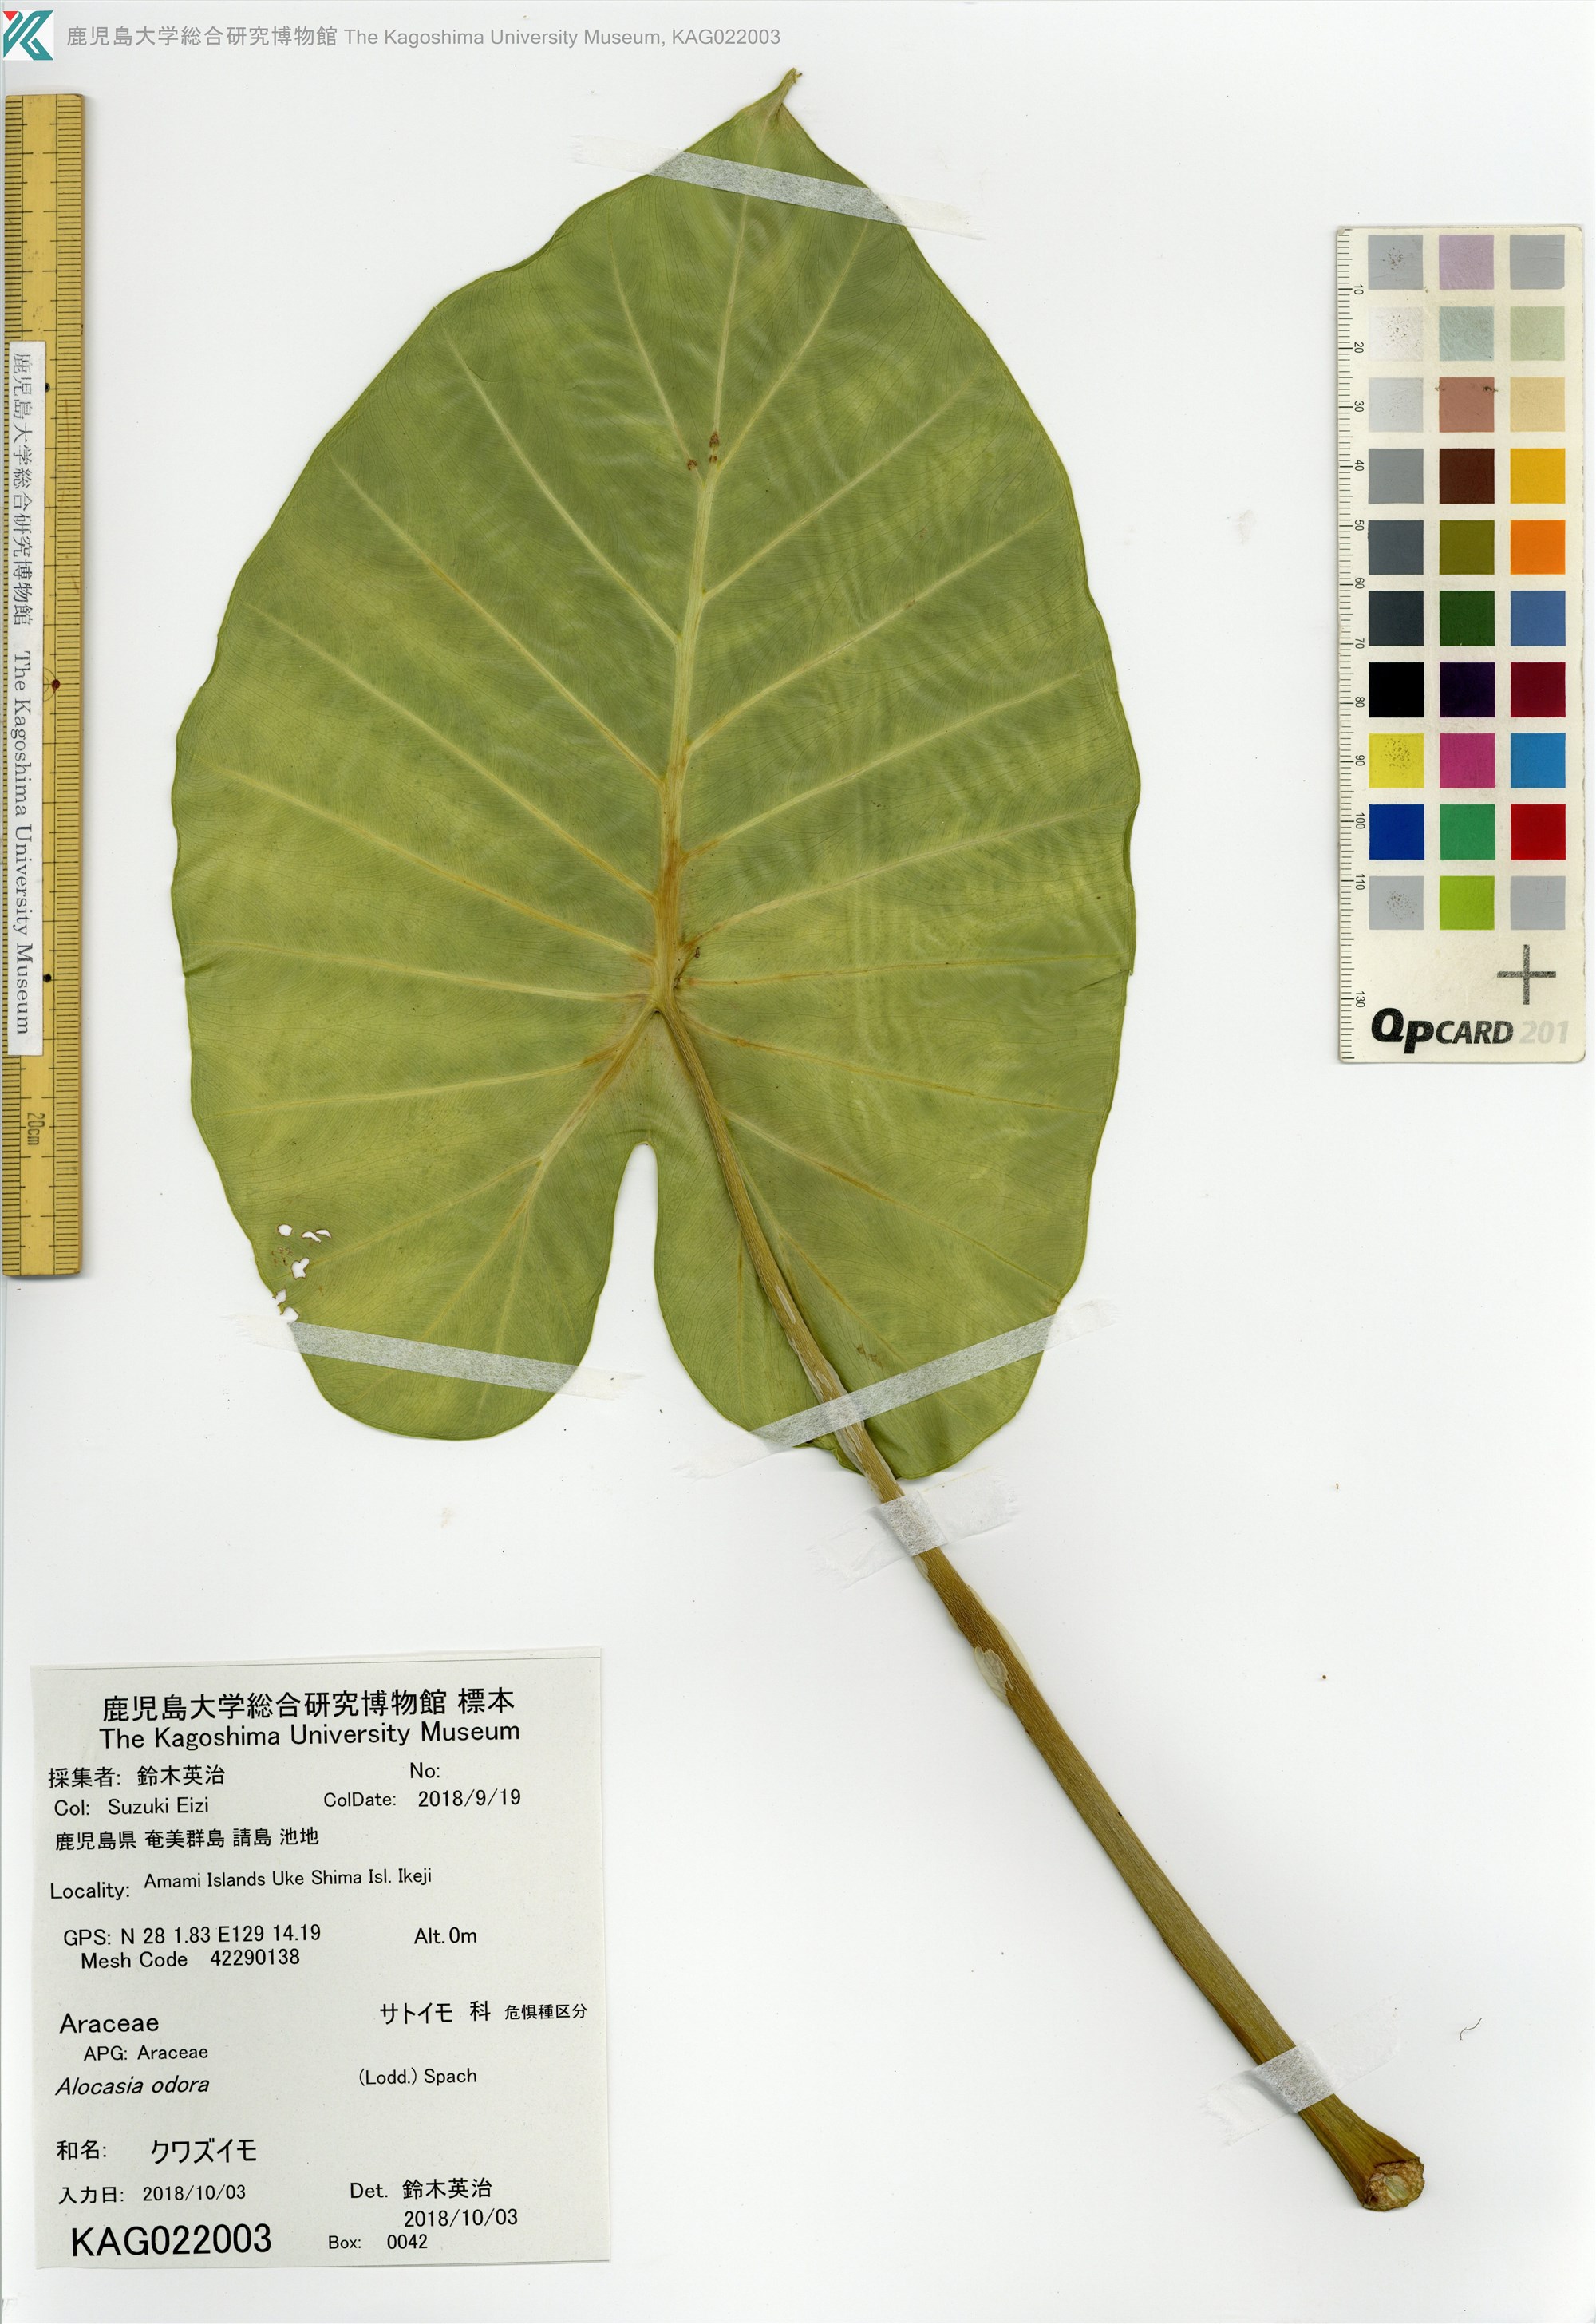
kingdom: Plantae
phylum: Tracheophyta
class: Liliopsida
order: Alismatales
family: Araceae
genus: Alocasia
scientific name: Alocasia odora
